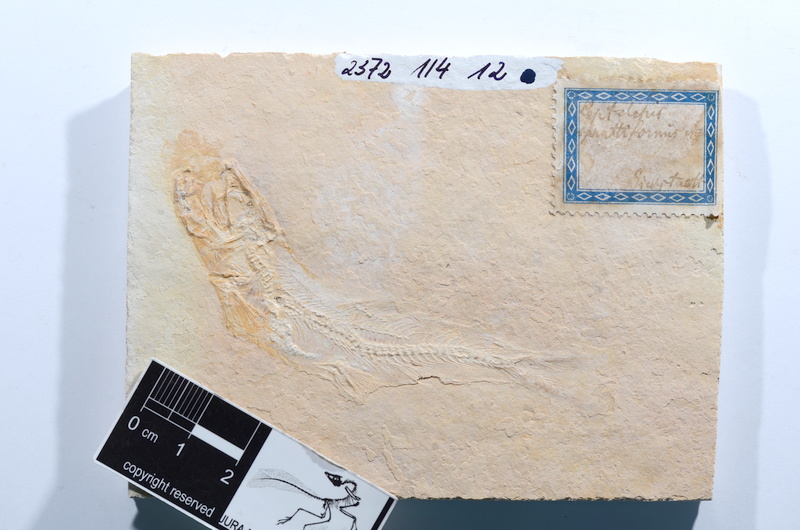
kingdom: Animalia
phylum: Chordata
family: Ascalaboidae
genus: Tharsis
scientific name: Tharsis dubius
